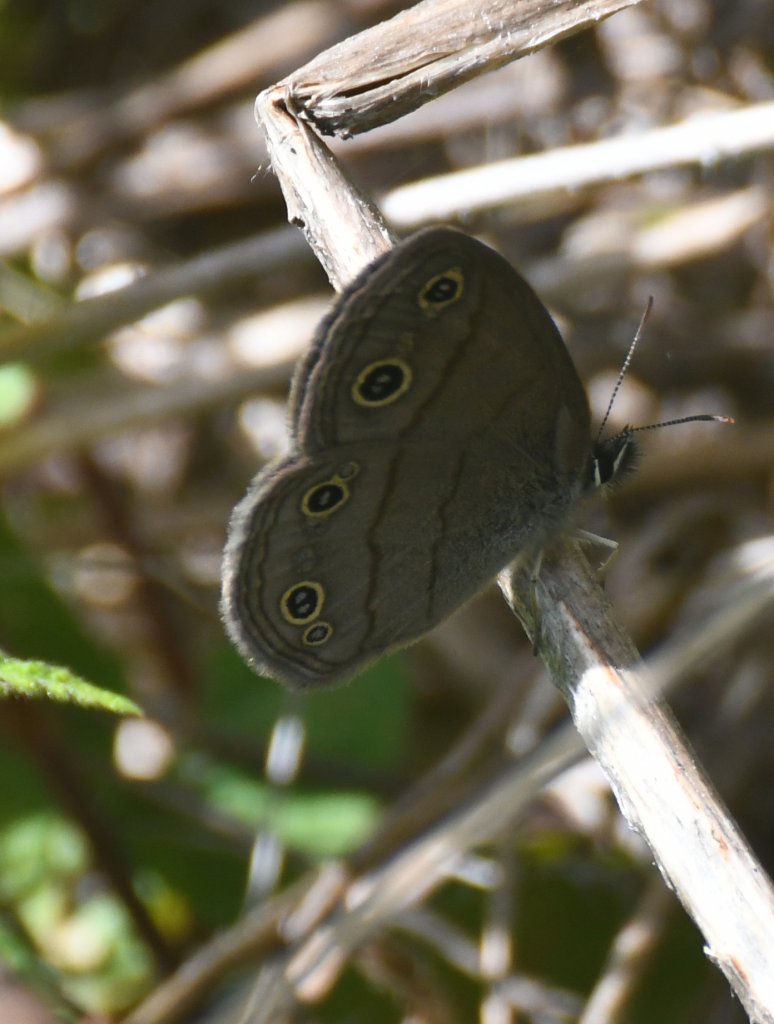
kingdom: Animalia
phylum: Arthropoda
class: Insecta
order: Lepidoptera
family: Nymphalidae
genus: Euptychia
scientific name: Euptychia cymela
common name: Little Wood Satyr
